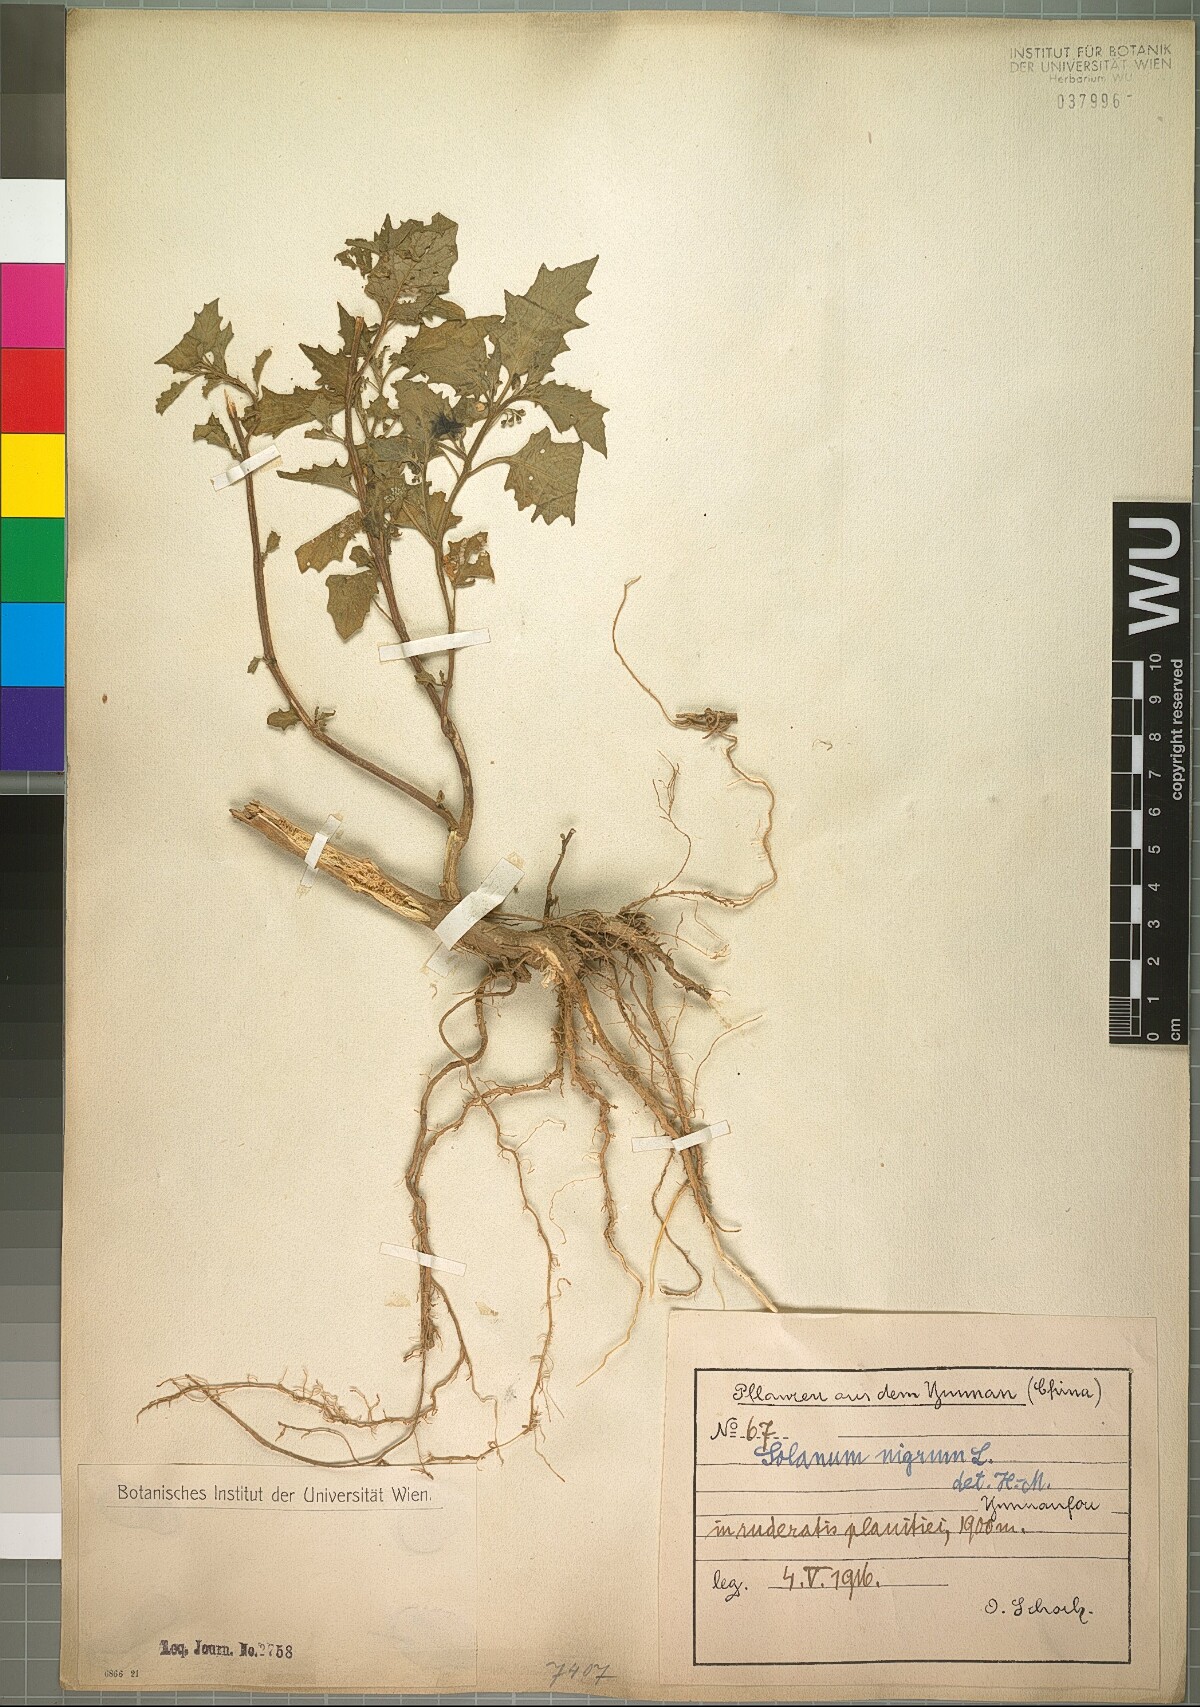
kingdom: Plantae
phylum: Tracheophyta
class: Magnoliopsida
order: Solanales
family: Solanaceae
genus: Solanum
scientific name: Solanum nigrum
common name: Black nightshade
